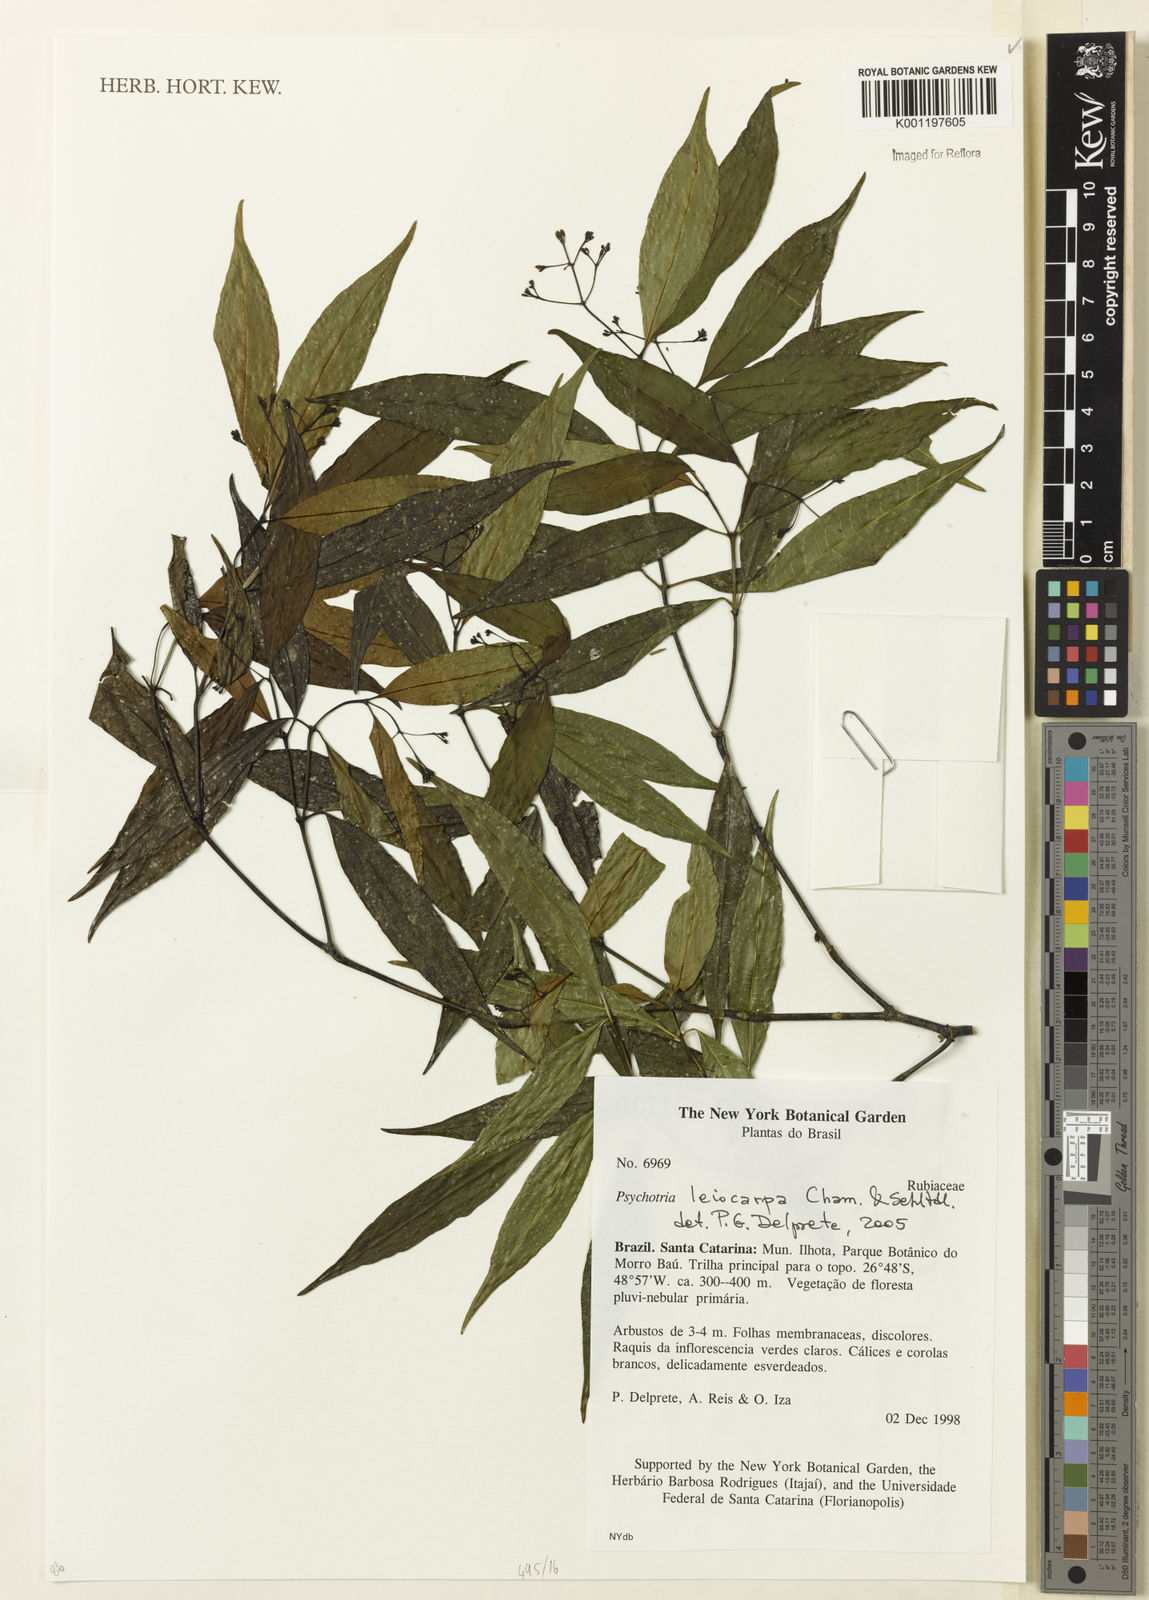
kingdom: Plantae
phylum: Tracheophyta
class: Magnoliopsida
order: Gentianales
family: Rubiaceae
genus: Psychotria
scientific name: Psychotria leiocarpa
